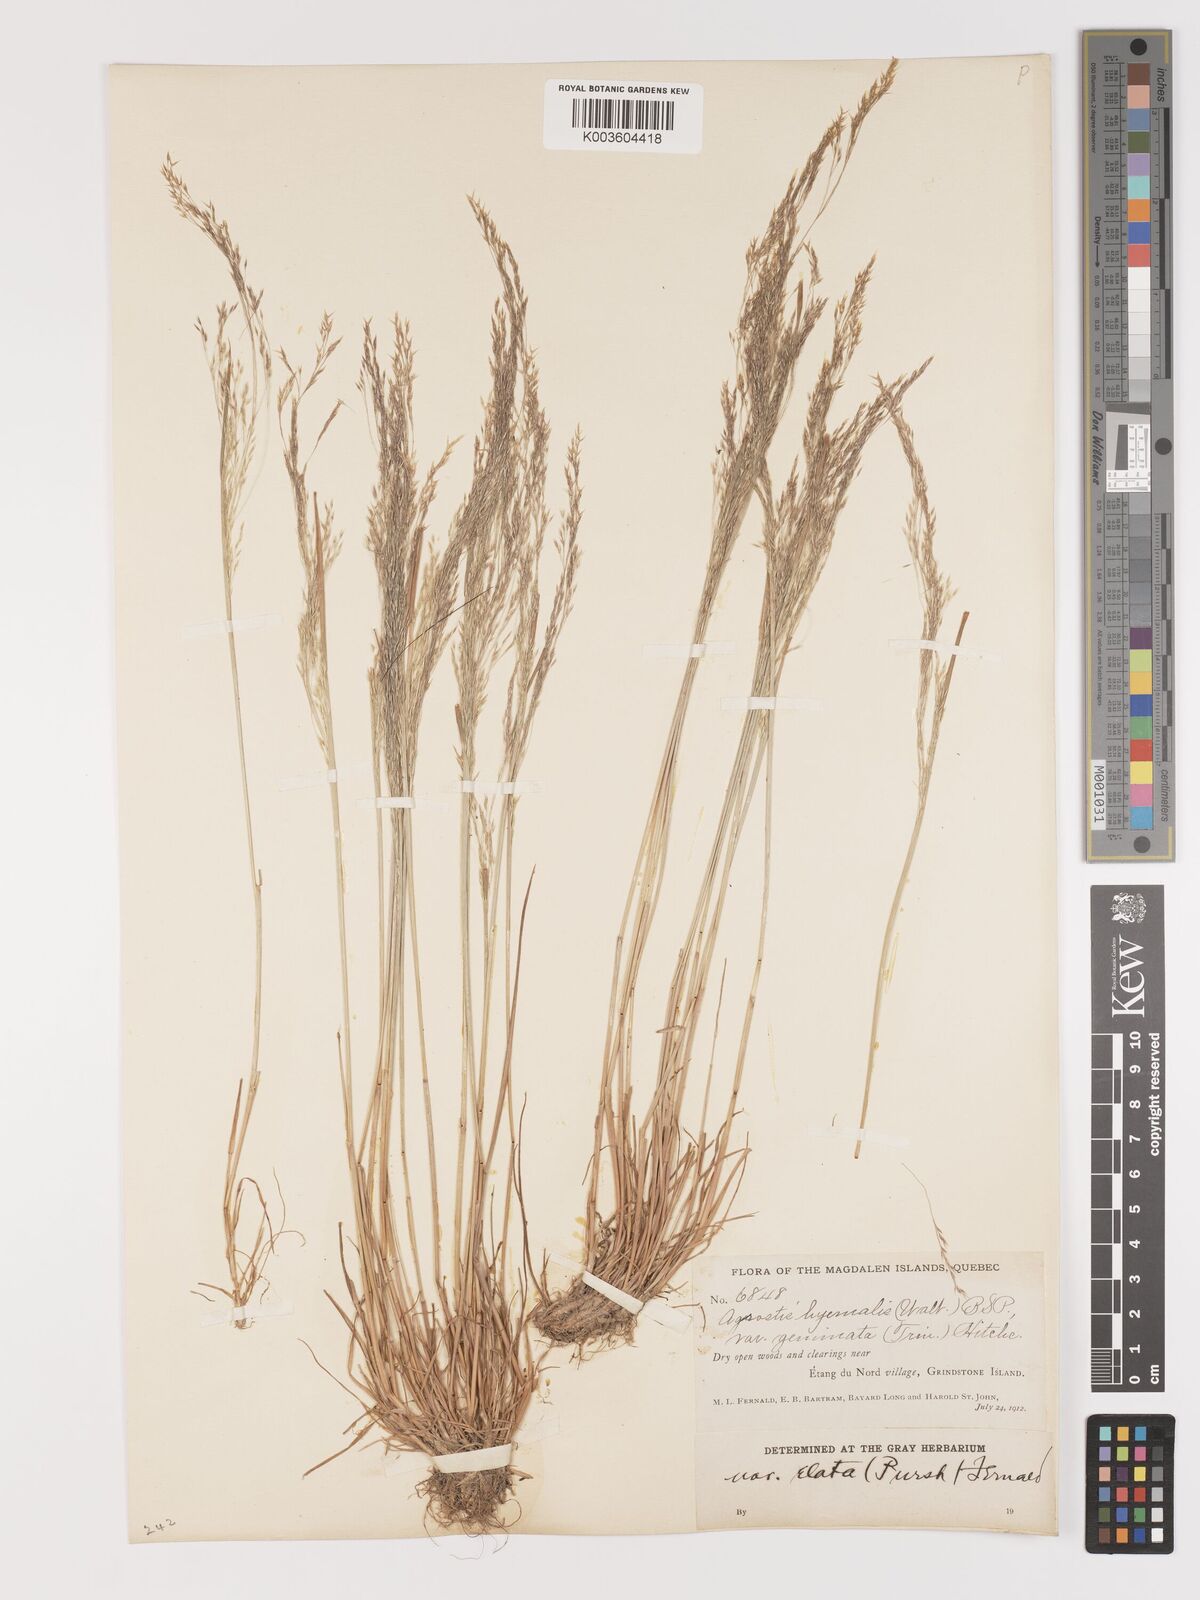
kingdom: Plantae
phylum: Tracheophyta
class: Liliopsida
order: Poales
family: Poaceae
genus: Agrostis
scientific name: Agrostis hyemalis
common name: Small bent
